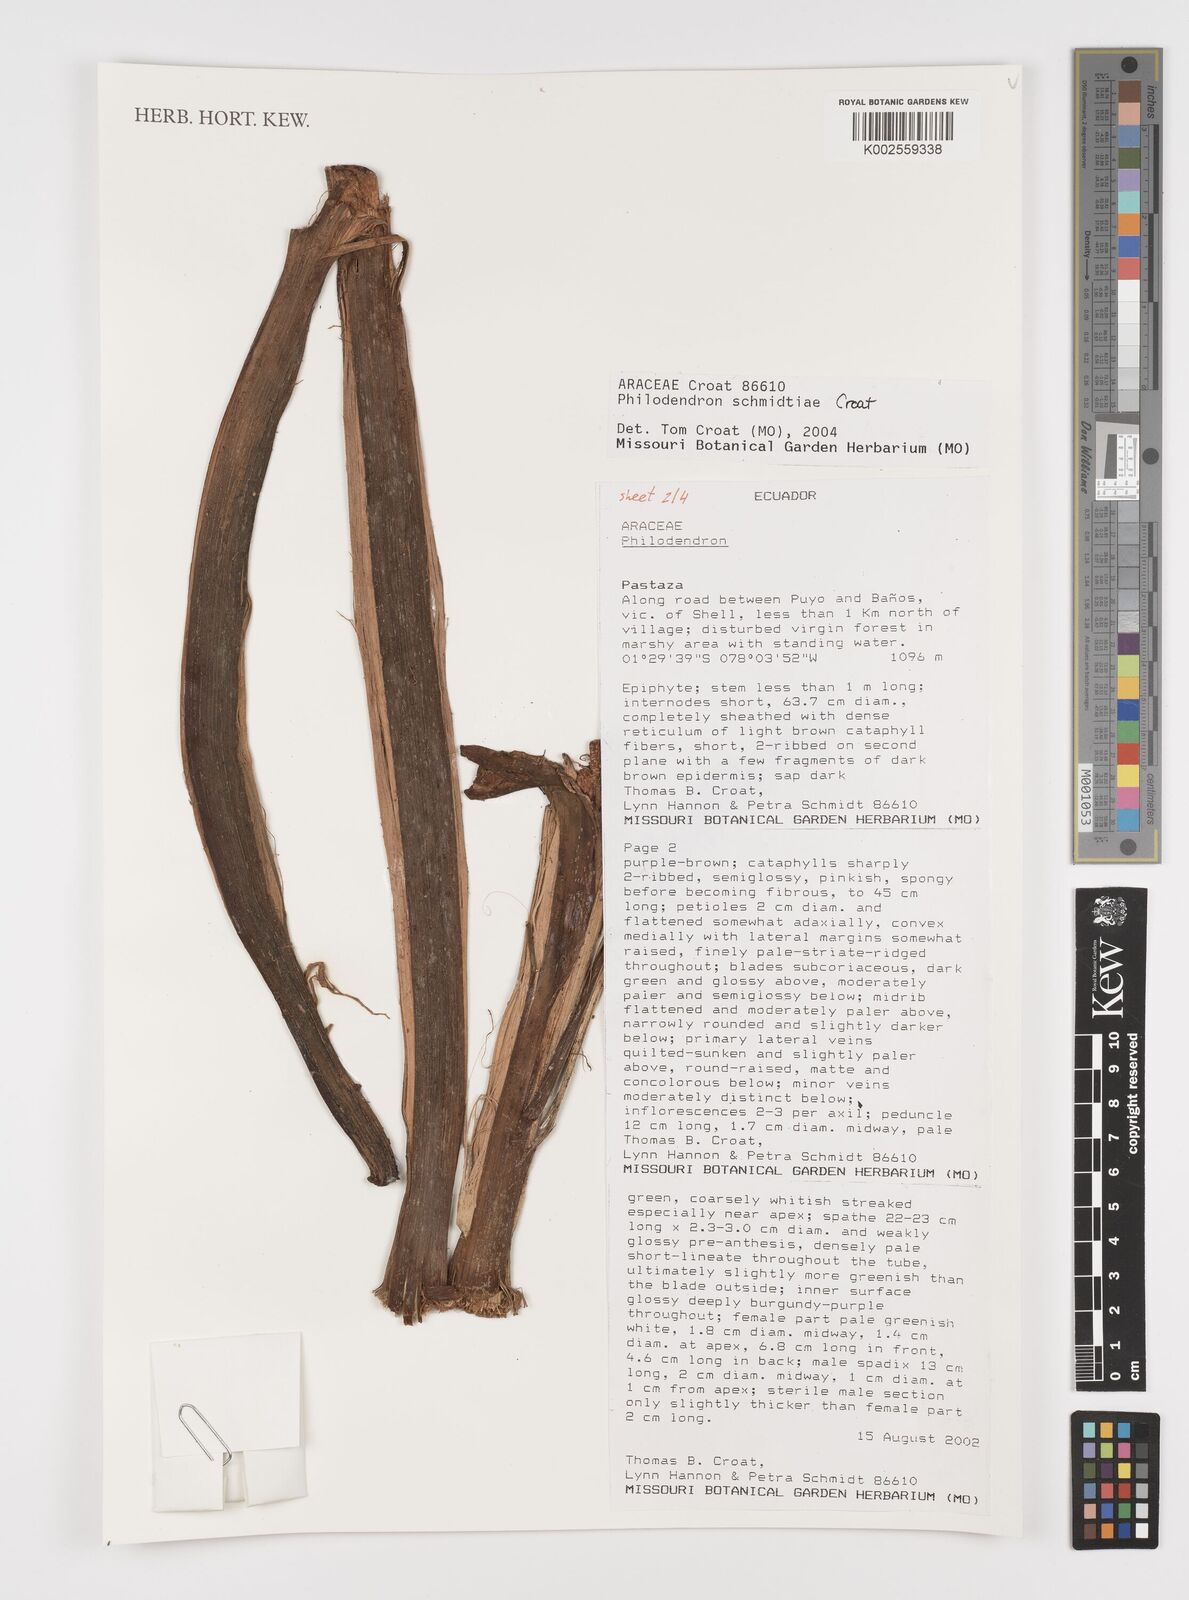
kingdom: Plantae
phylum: Tracheophyta
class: Liliopsida
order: Alismatales
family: Araceae
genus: Philodendron
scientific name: Philodendron schmidtiae
